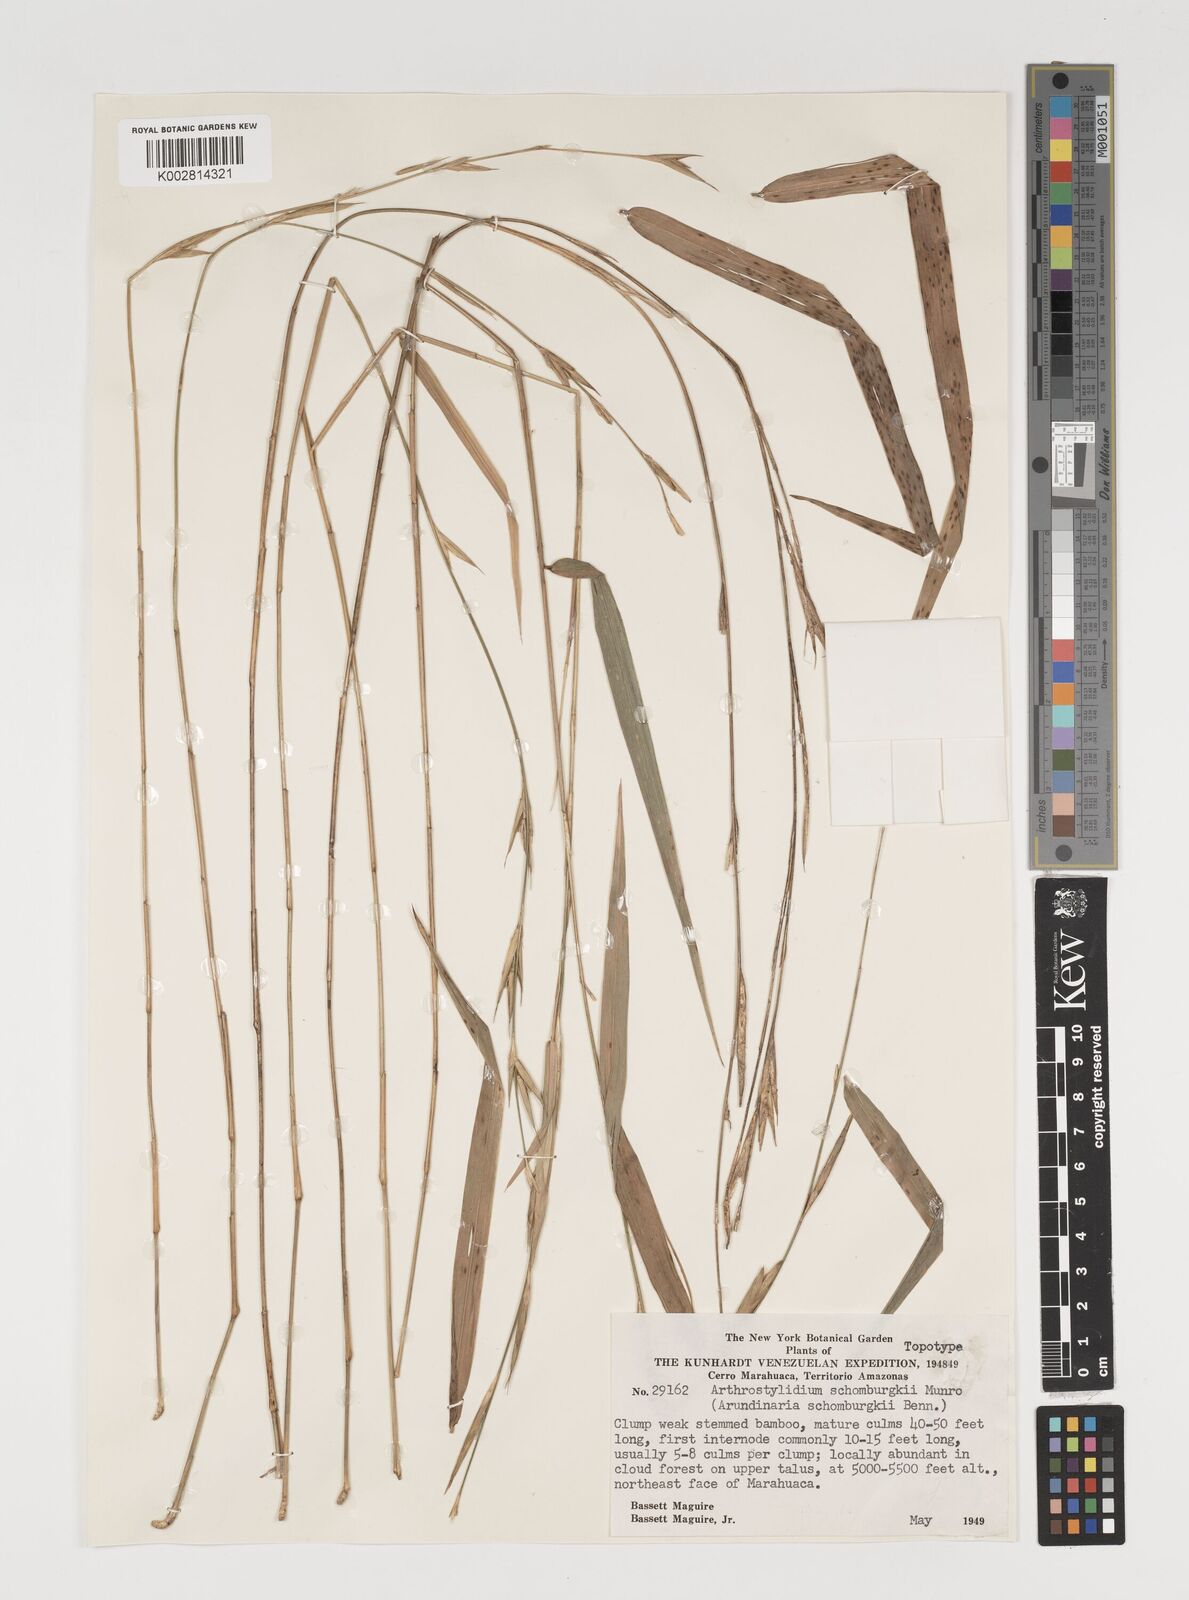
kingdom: Plantae
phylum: Tracheophyta
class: Liliopsida
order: Poales
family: Poaceae
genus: Arthrostylidium
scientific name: Arthrostylidium schomburgkii
